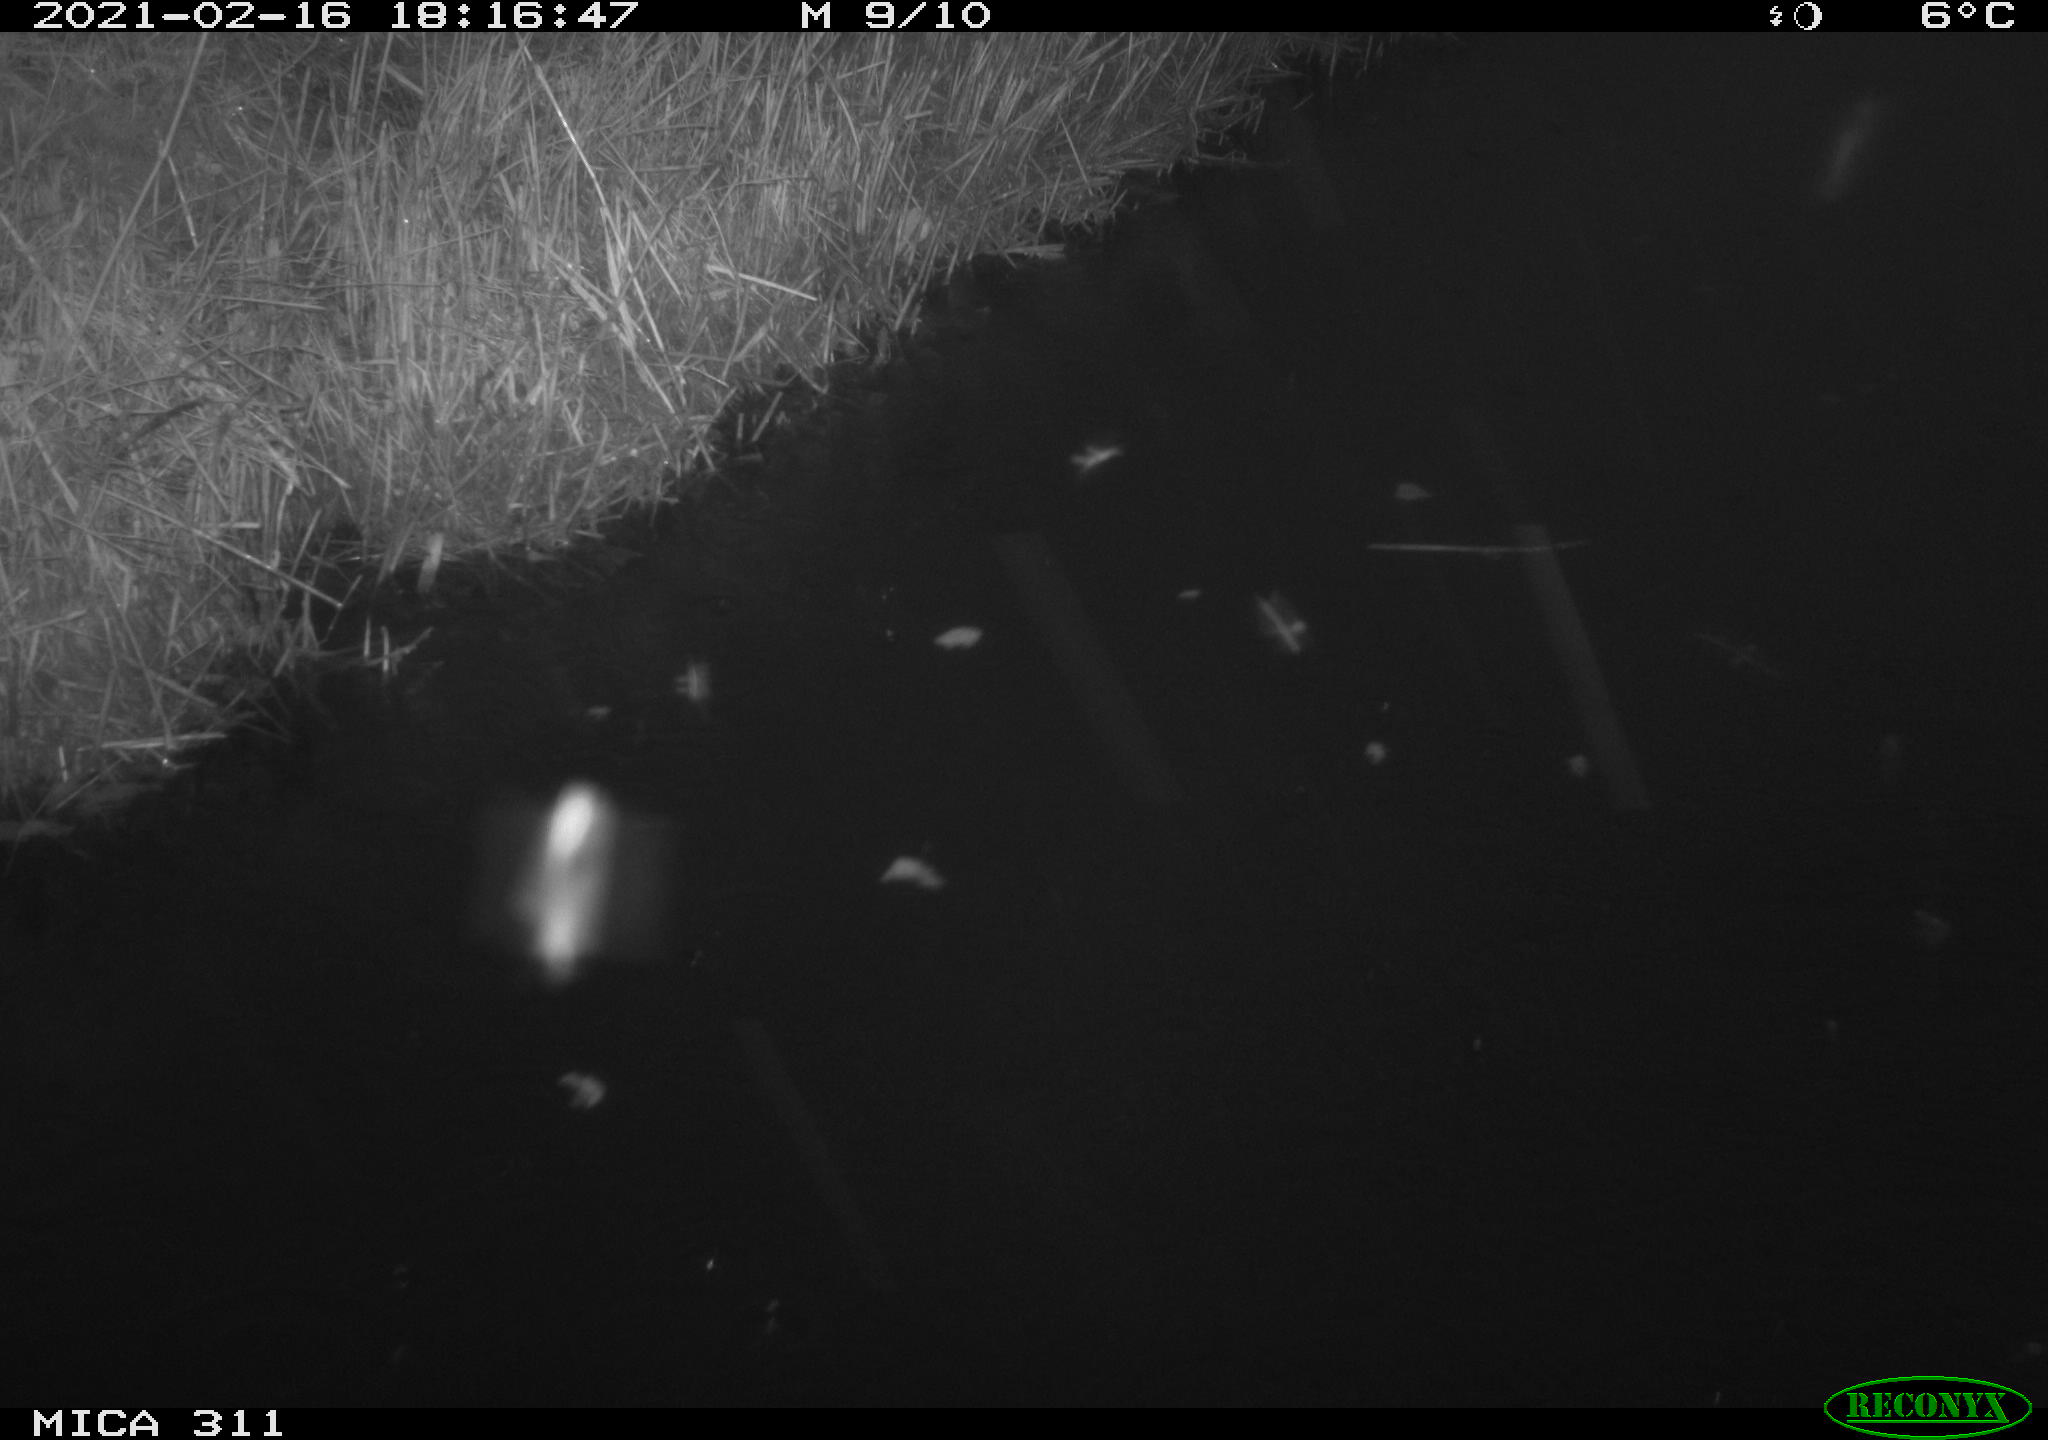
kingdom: Animalia
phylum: Chordata
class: Aves
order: Gruiformes
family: Rallidae
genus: Gallinula
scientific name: Gallinula chloropus
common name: Common moorhen
